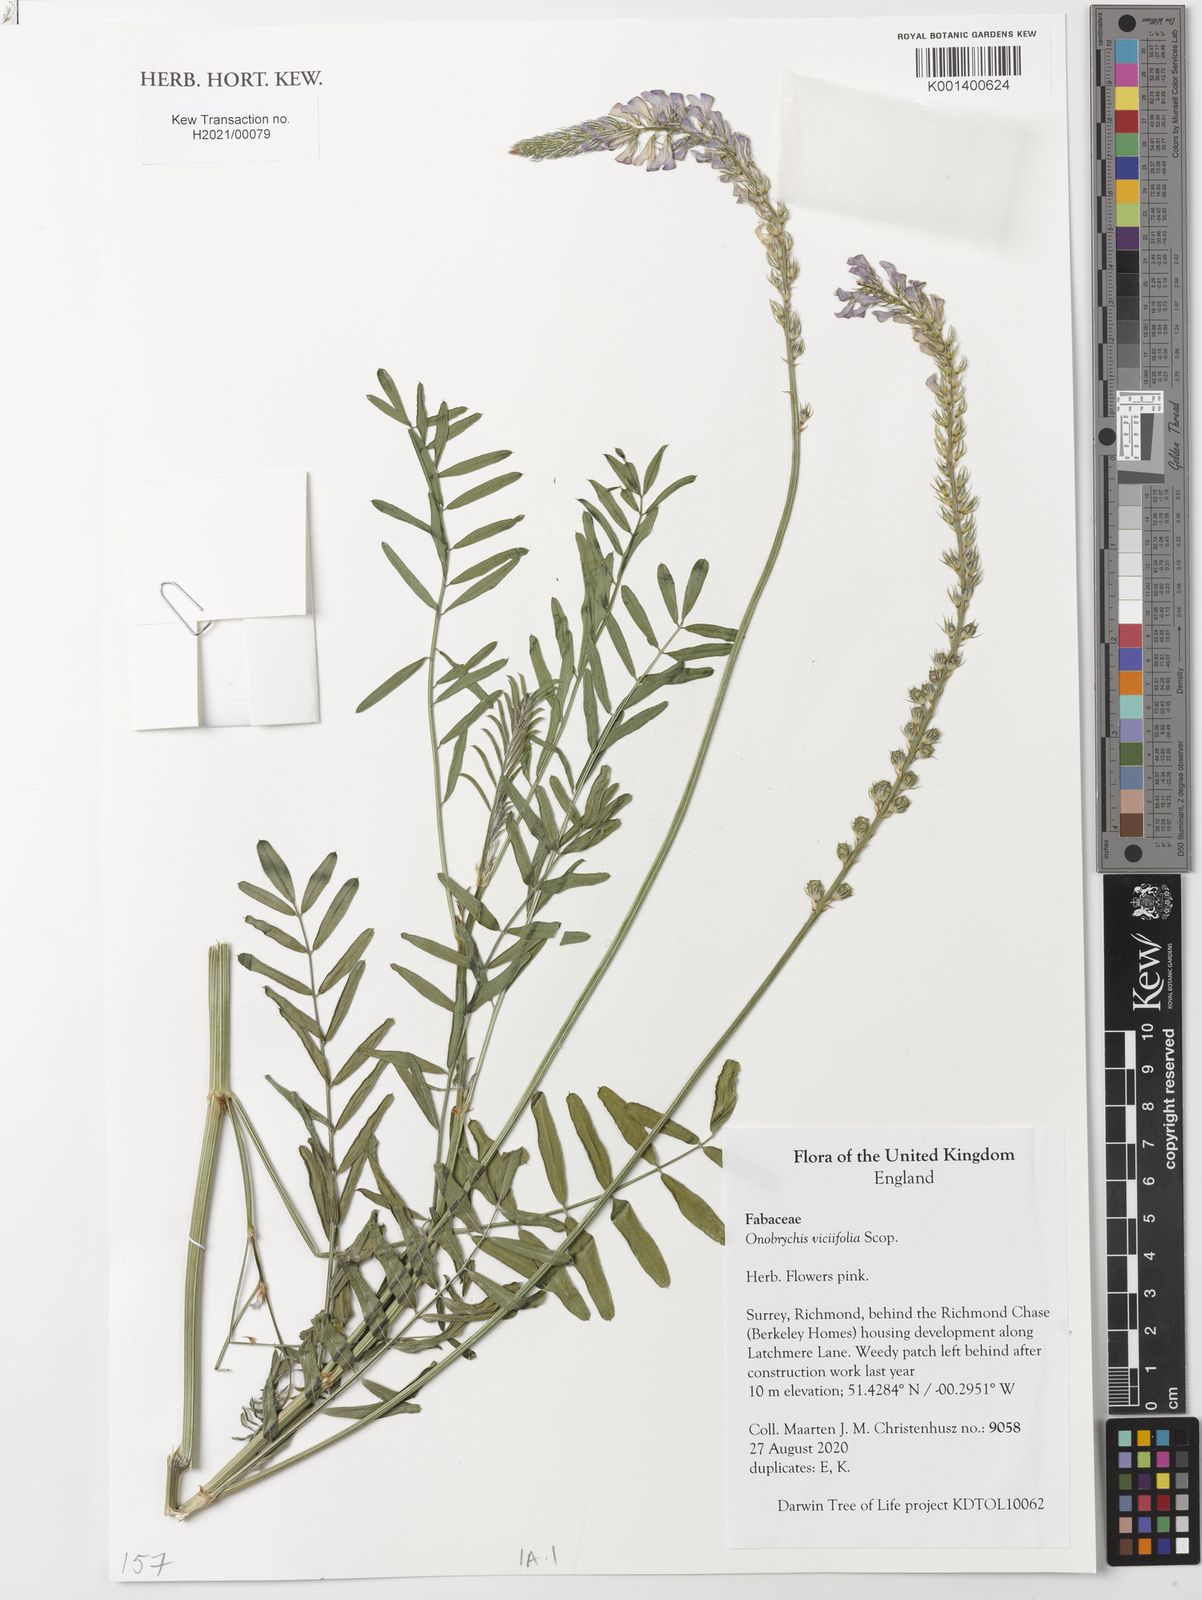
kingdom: Plantae
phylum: Tracheophyta
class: Magnoliopsida
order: Fabales
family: Fabaceae
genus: Onobrychis
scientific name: Onobrychis viciifolia
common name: Sainfoin
